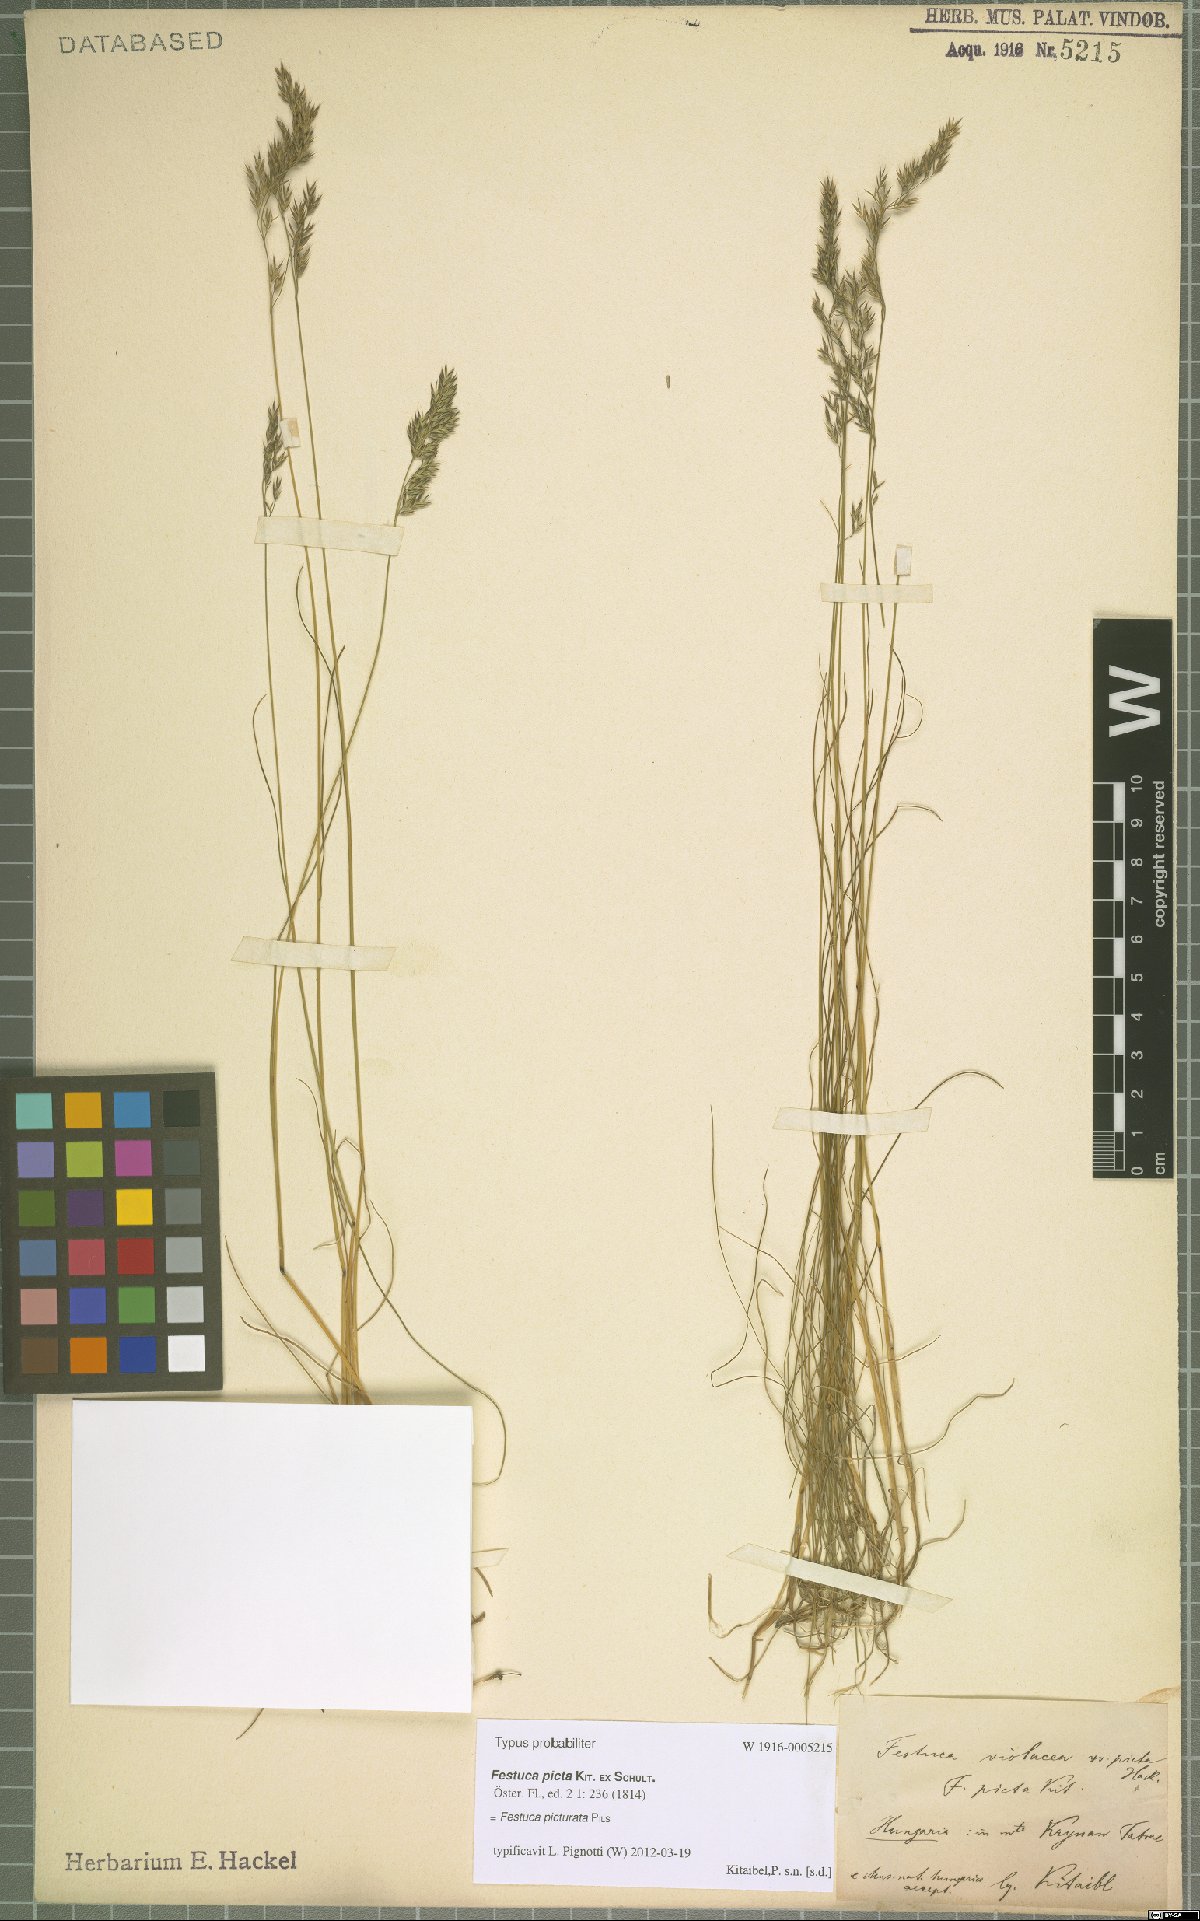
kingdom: Plantae
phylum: Tracheophyta
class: Liliopsida
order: Poales
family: Poaceae
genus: Festuca
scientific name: Festuca picturata
